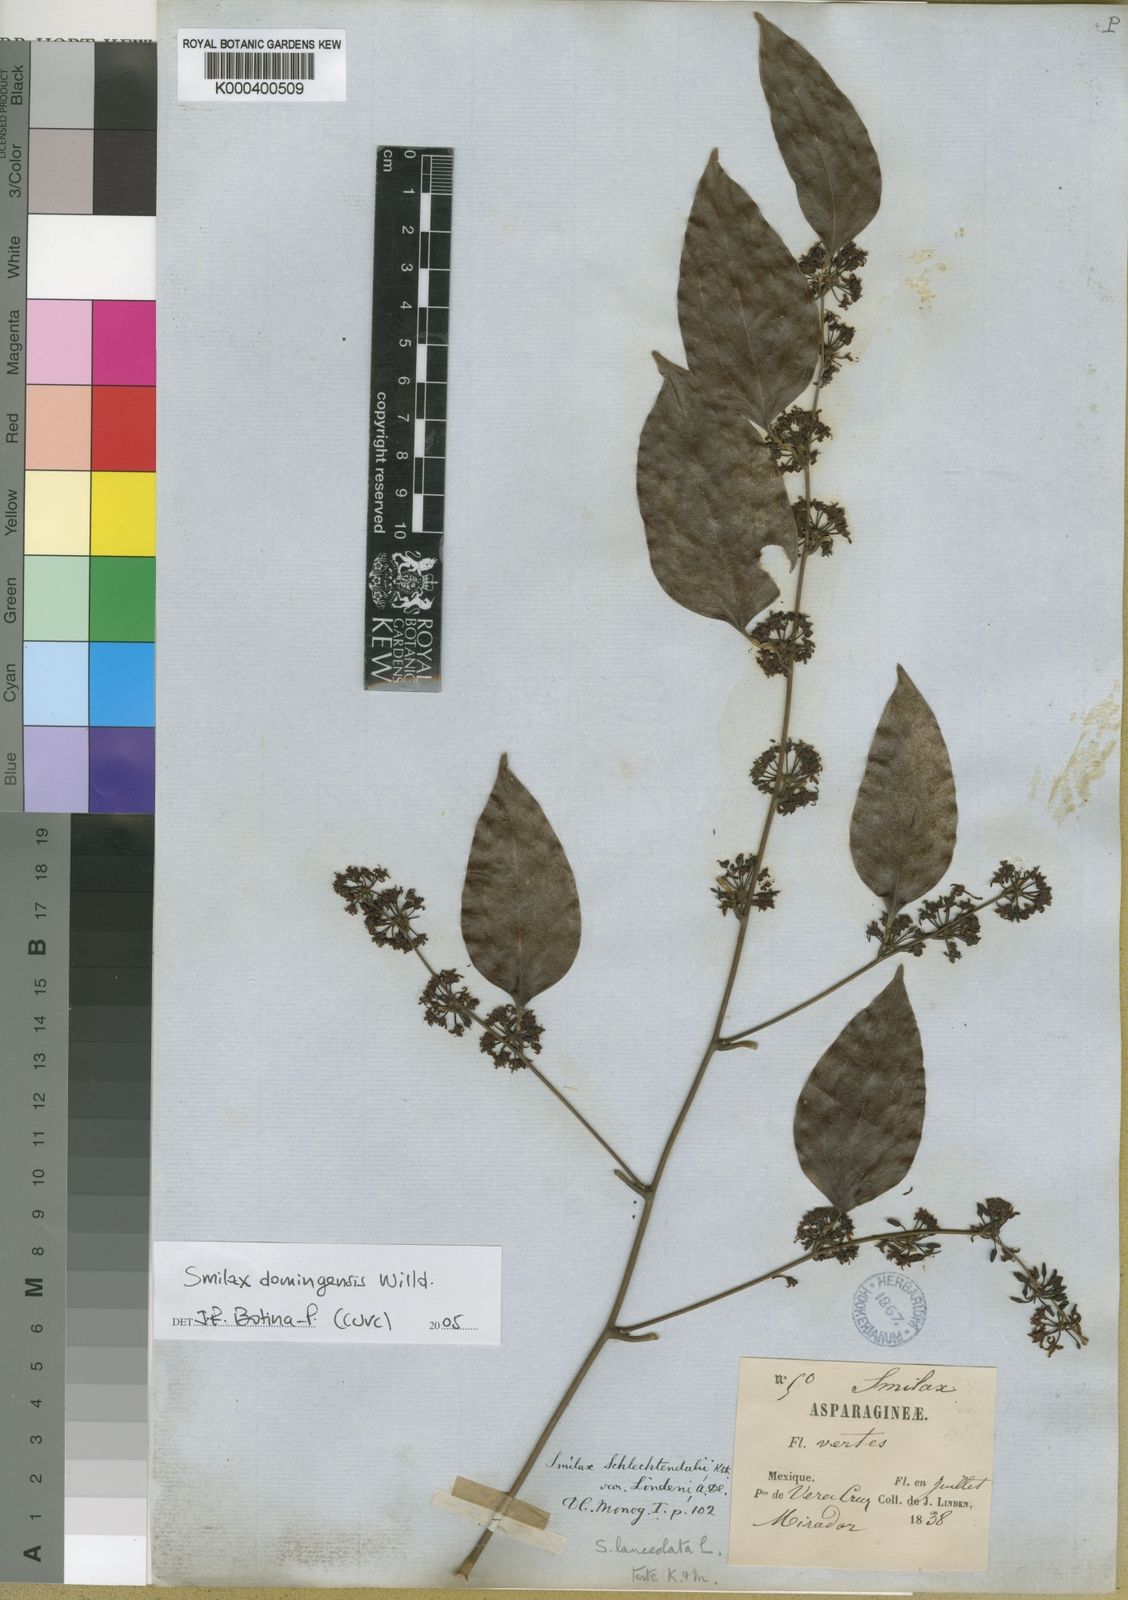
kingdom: Plantae
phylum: Tracheophyta
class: Liliopsida
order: Liliales
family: Smilacaceae
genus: Smilax
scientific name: Smilax domingensis
